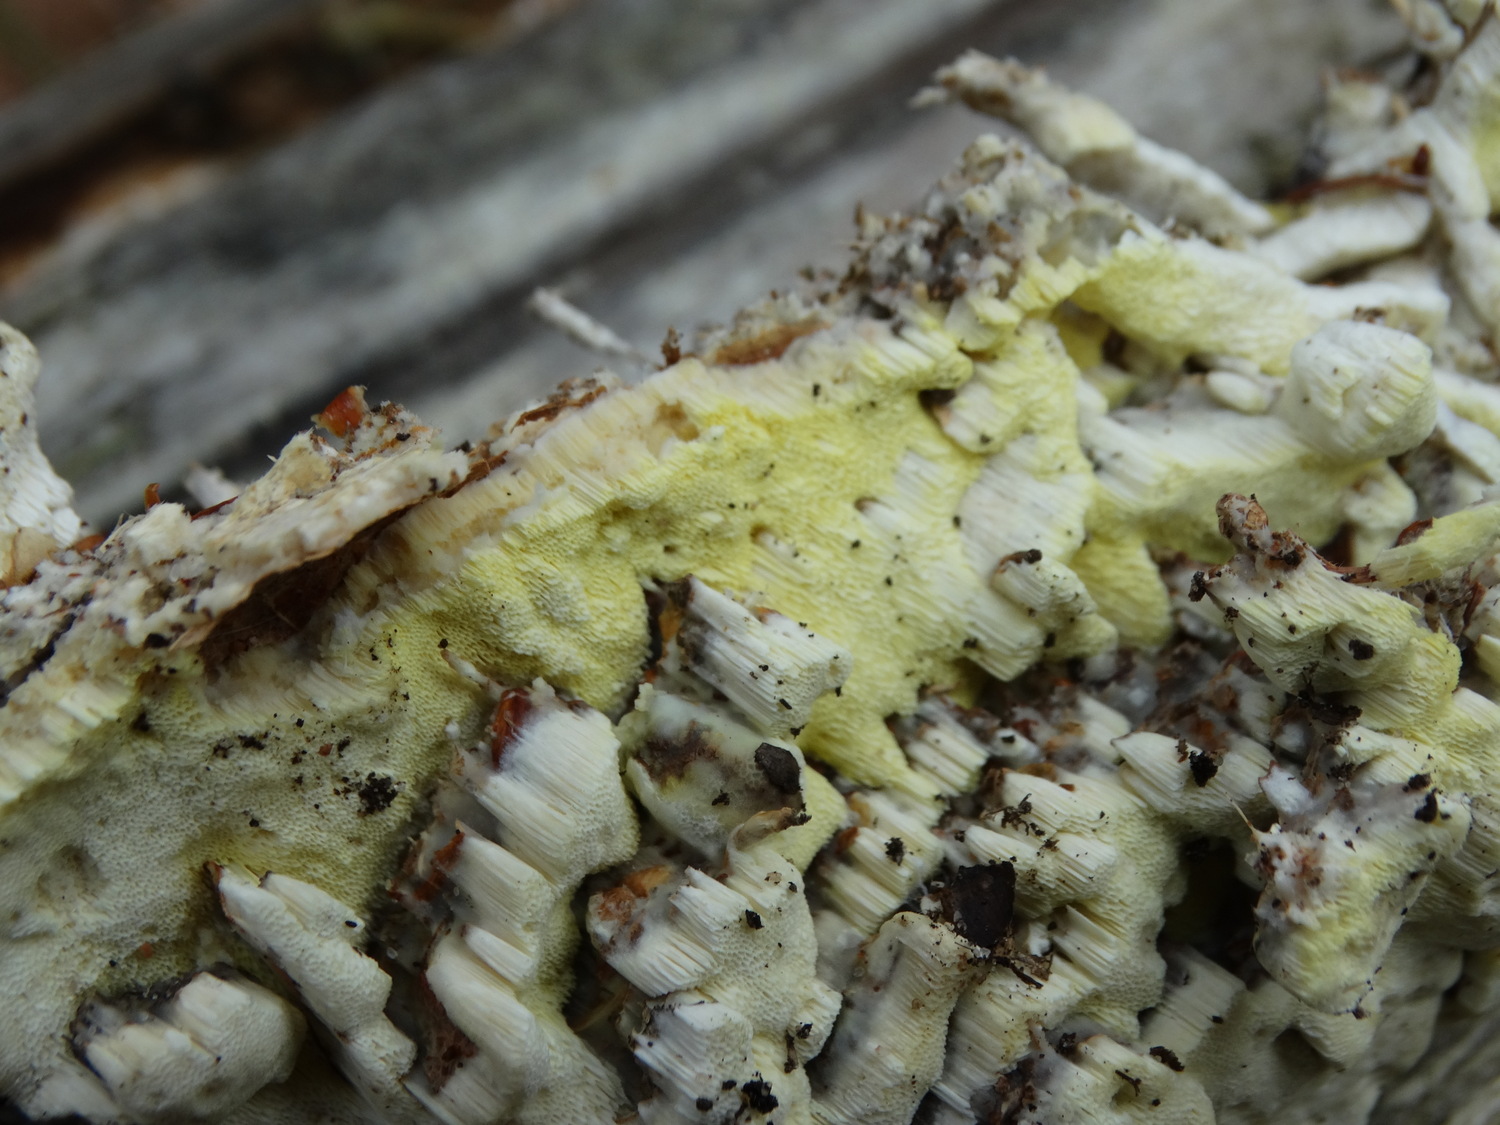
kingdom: Fungi
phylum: Basidiomycota
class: Agaricomycetes
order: Polyporales
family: Fomitopsidaceae
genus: Daedalea
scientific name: Daedalea xantha
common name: gul sejporesvamp
